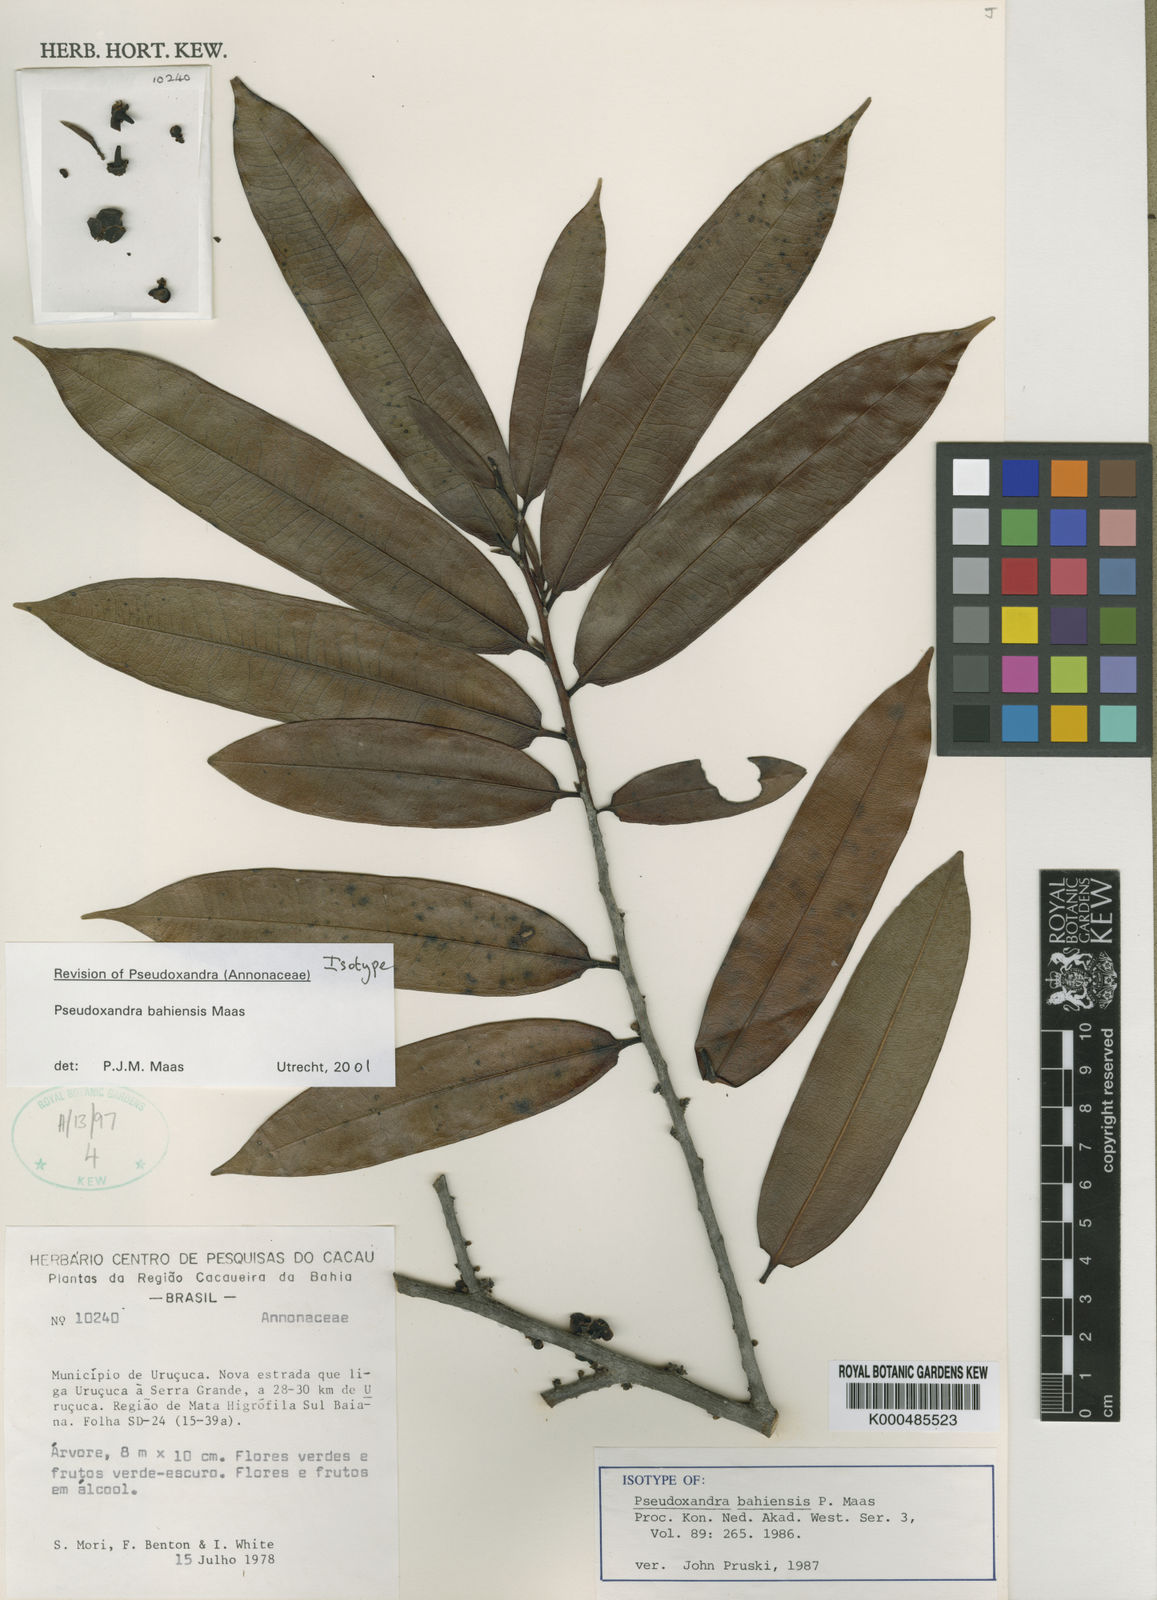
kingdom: Plantae
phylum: Tracheophyta
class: Magnoliopsida
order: Magnoliales
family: Annonaceae
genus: Pseudoxandra
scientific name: Pseudoxandra bahiensis
